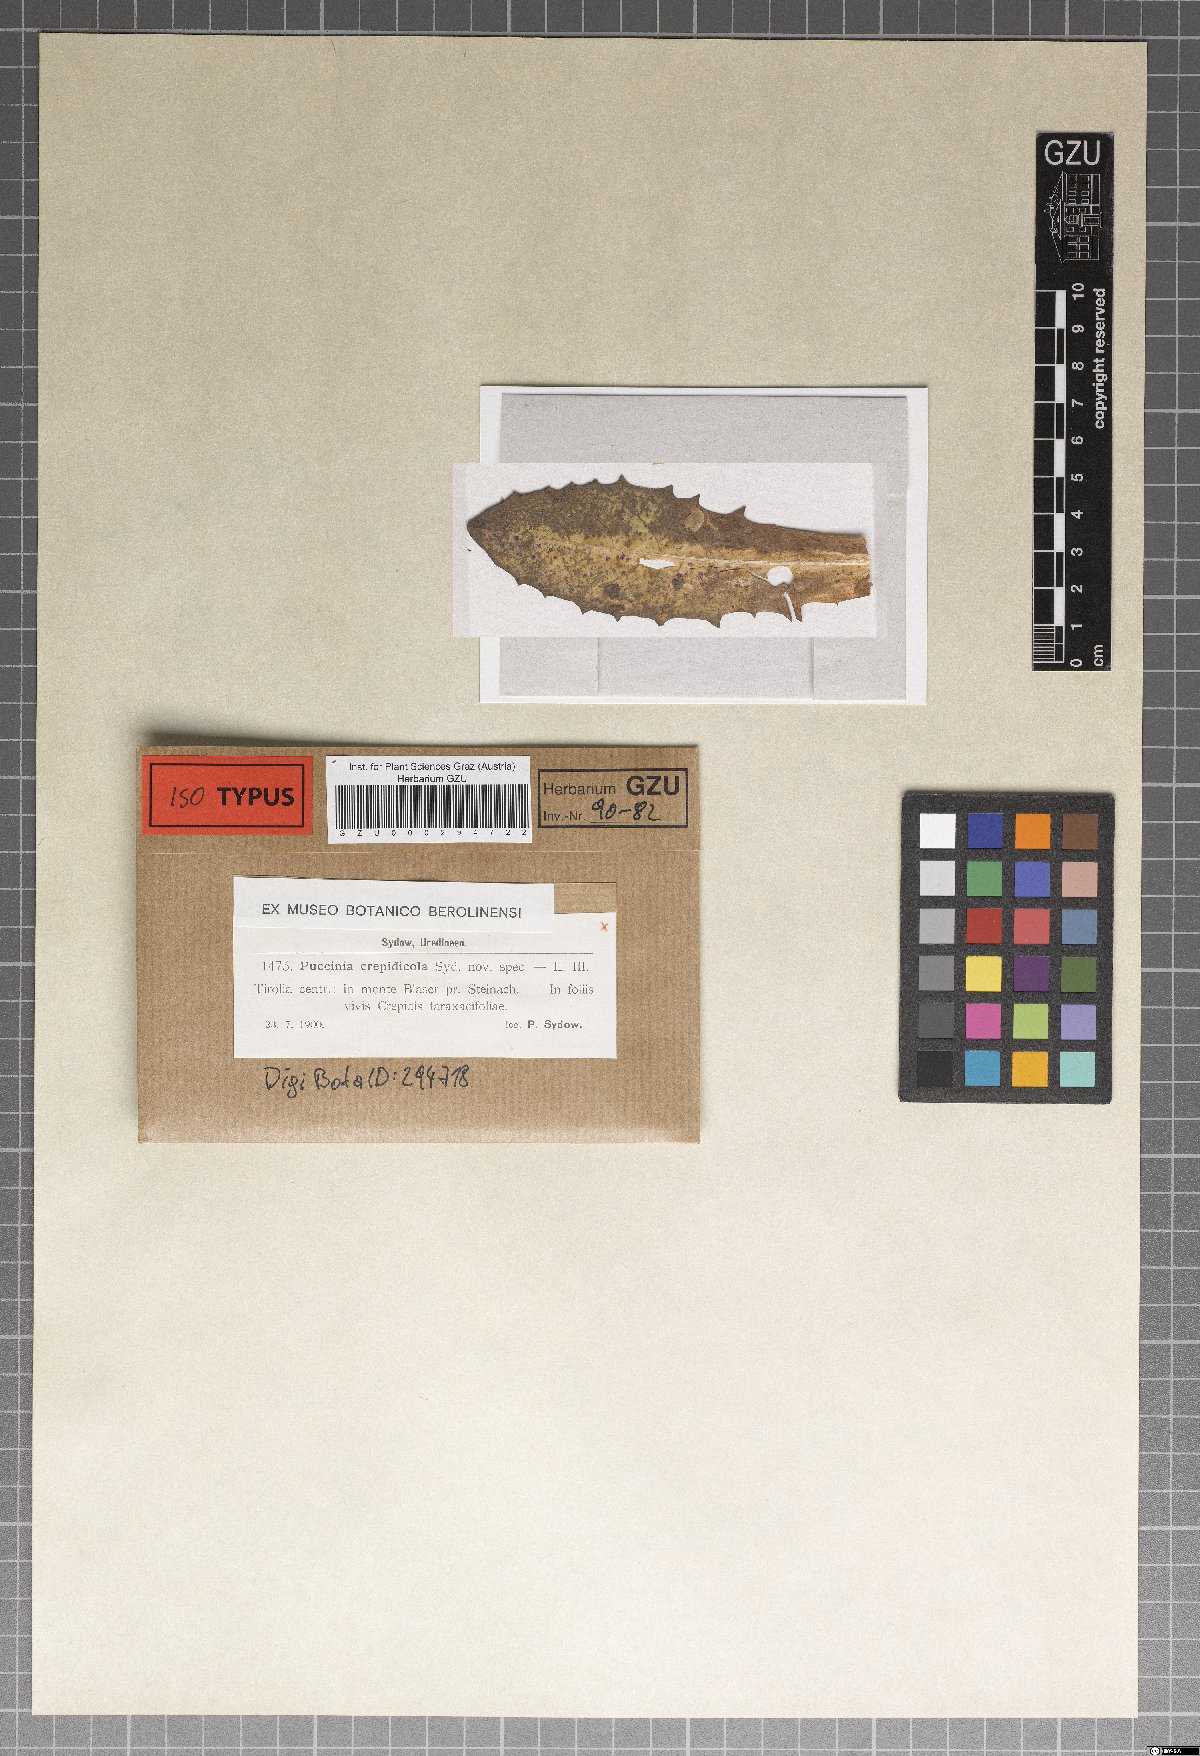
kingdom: Fungi
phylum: Basidiomycota
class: Pucciniomycetes
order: Pucciniales
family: Pucciniaceae
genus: Puccinia
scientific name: Puccinia crepidicola
